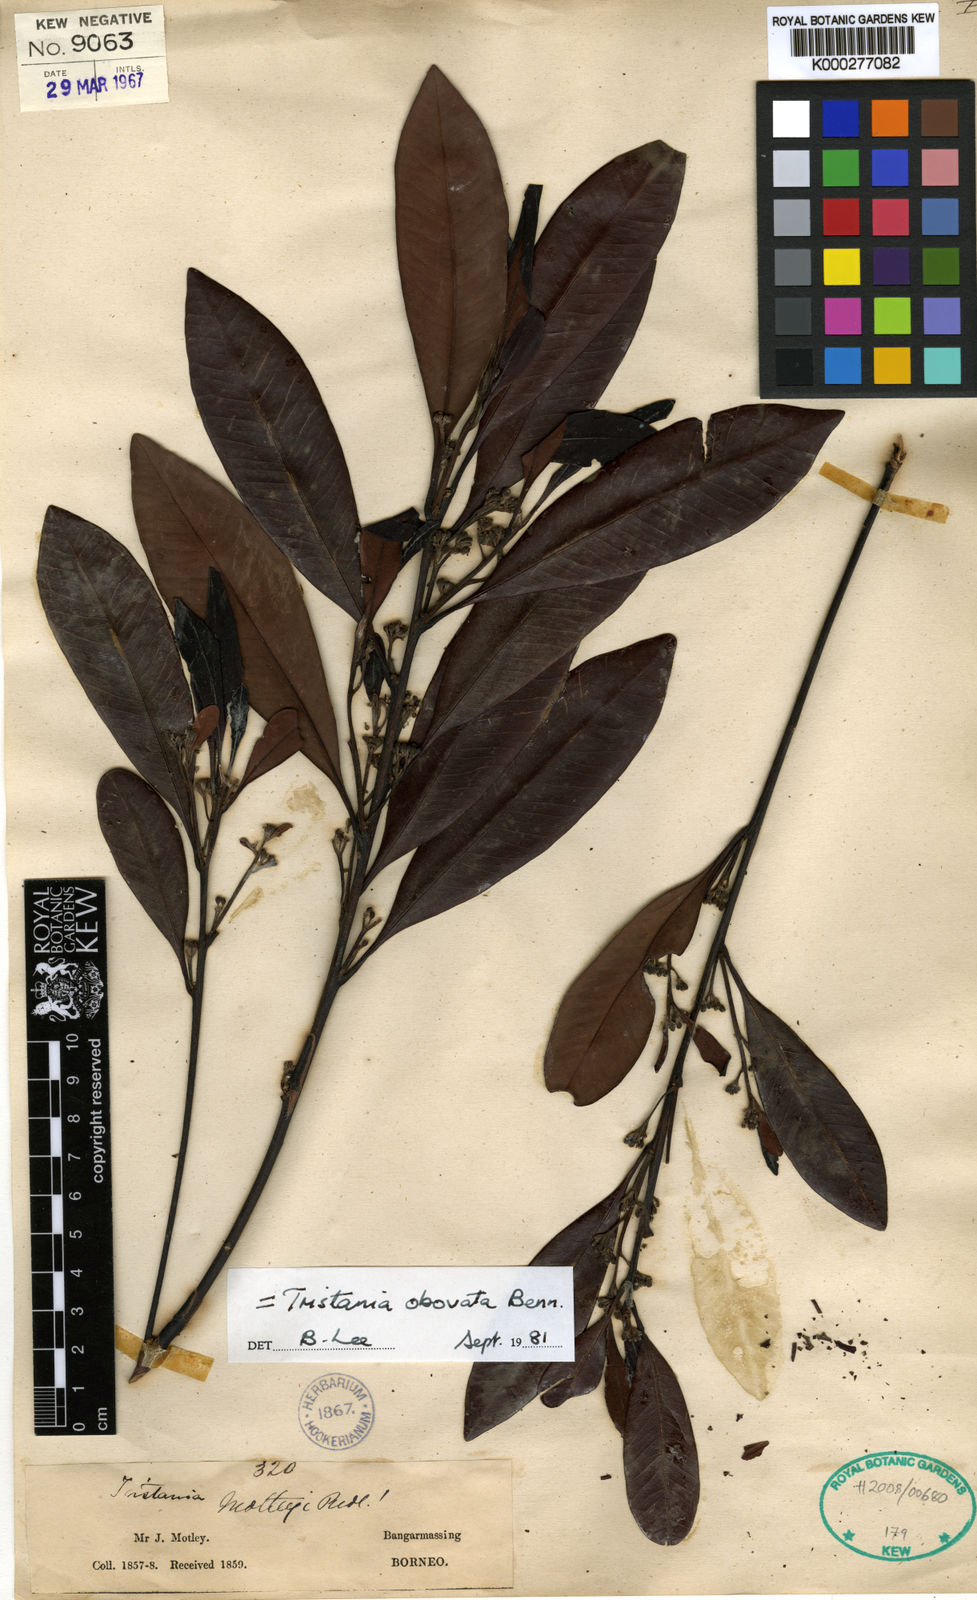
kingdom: Plantae
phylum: Tracheophyta
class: Magnoliopsida
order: Myrtales
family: Myrtaceae
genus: Tristaniopsis
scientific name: Tristaniopsis whiteana
